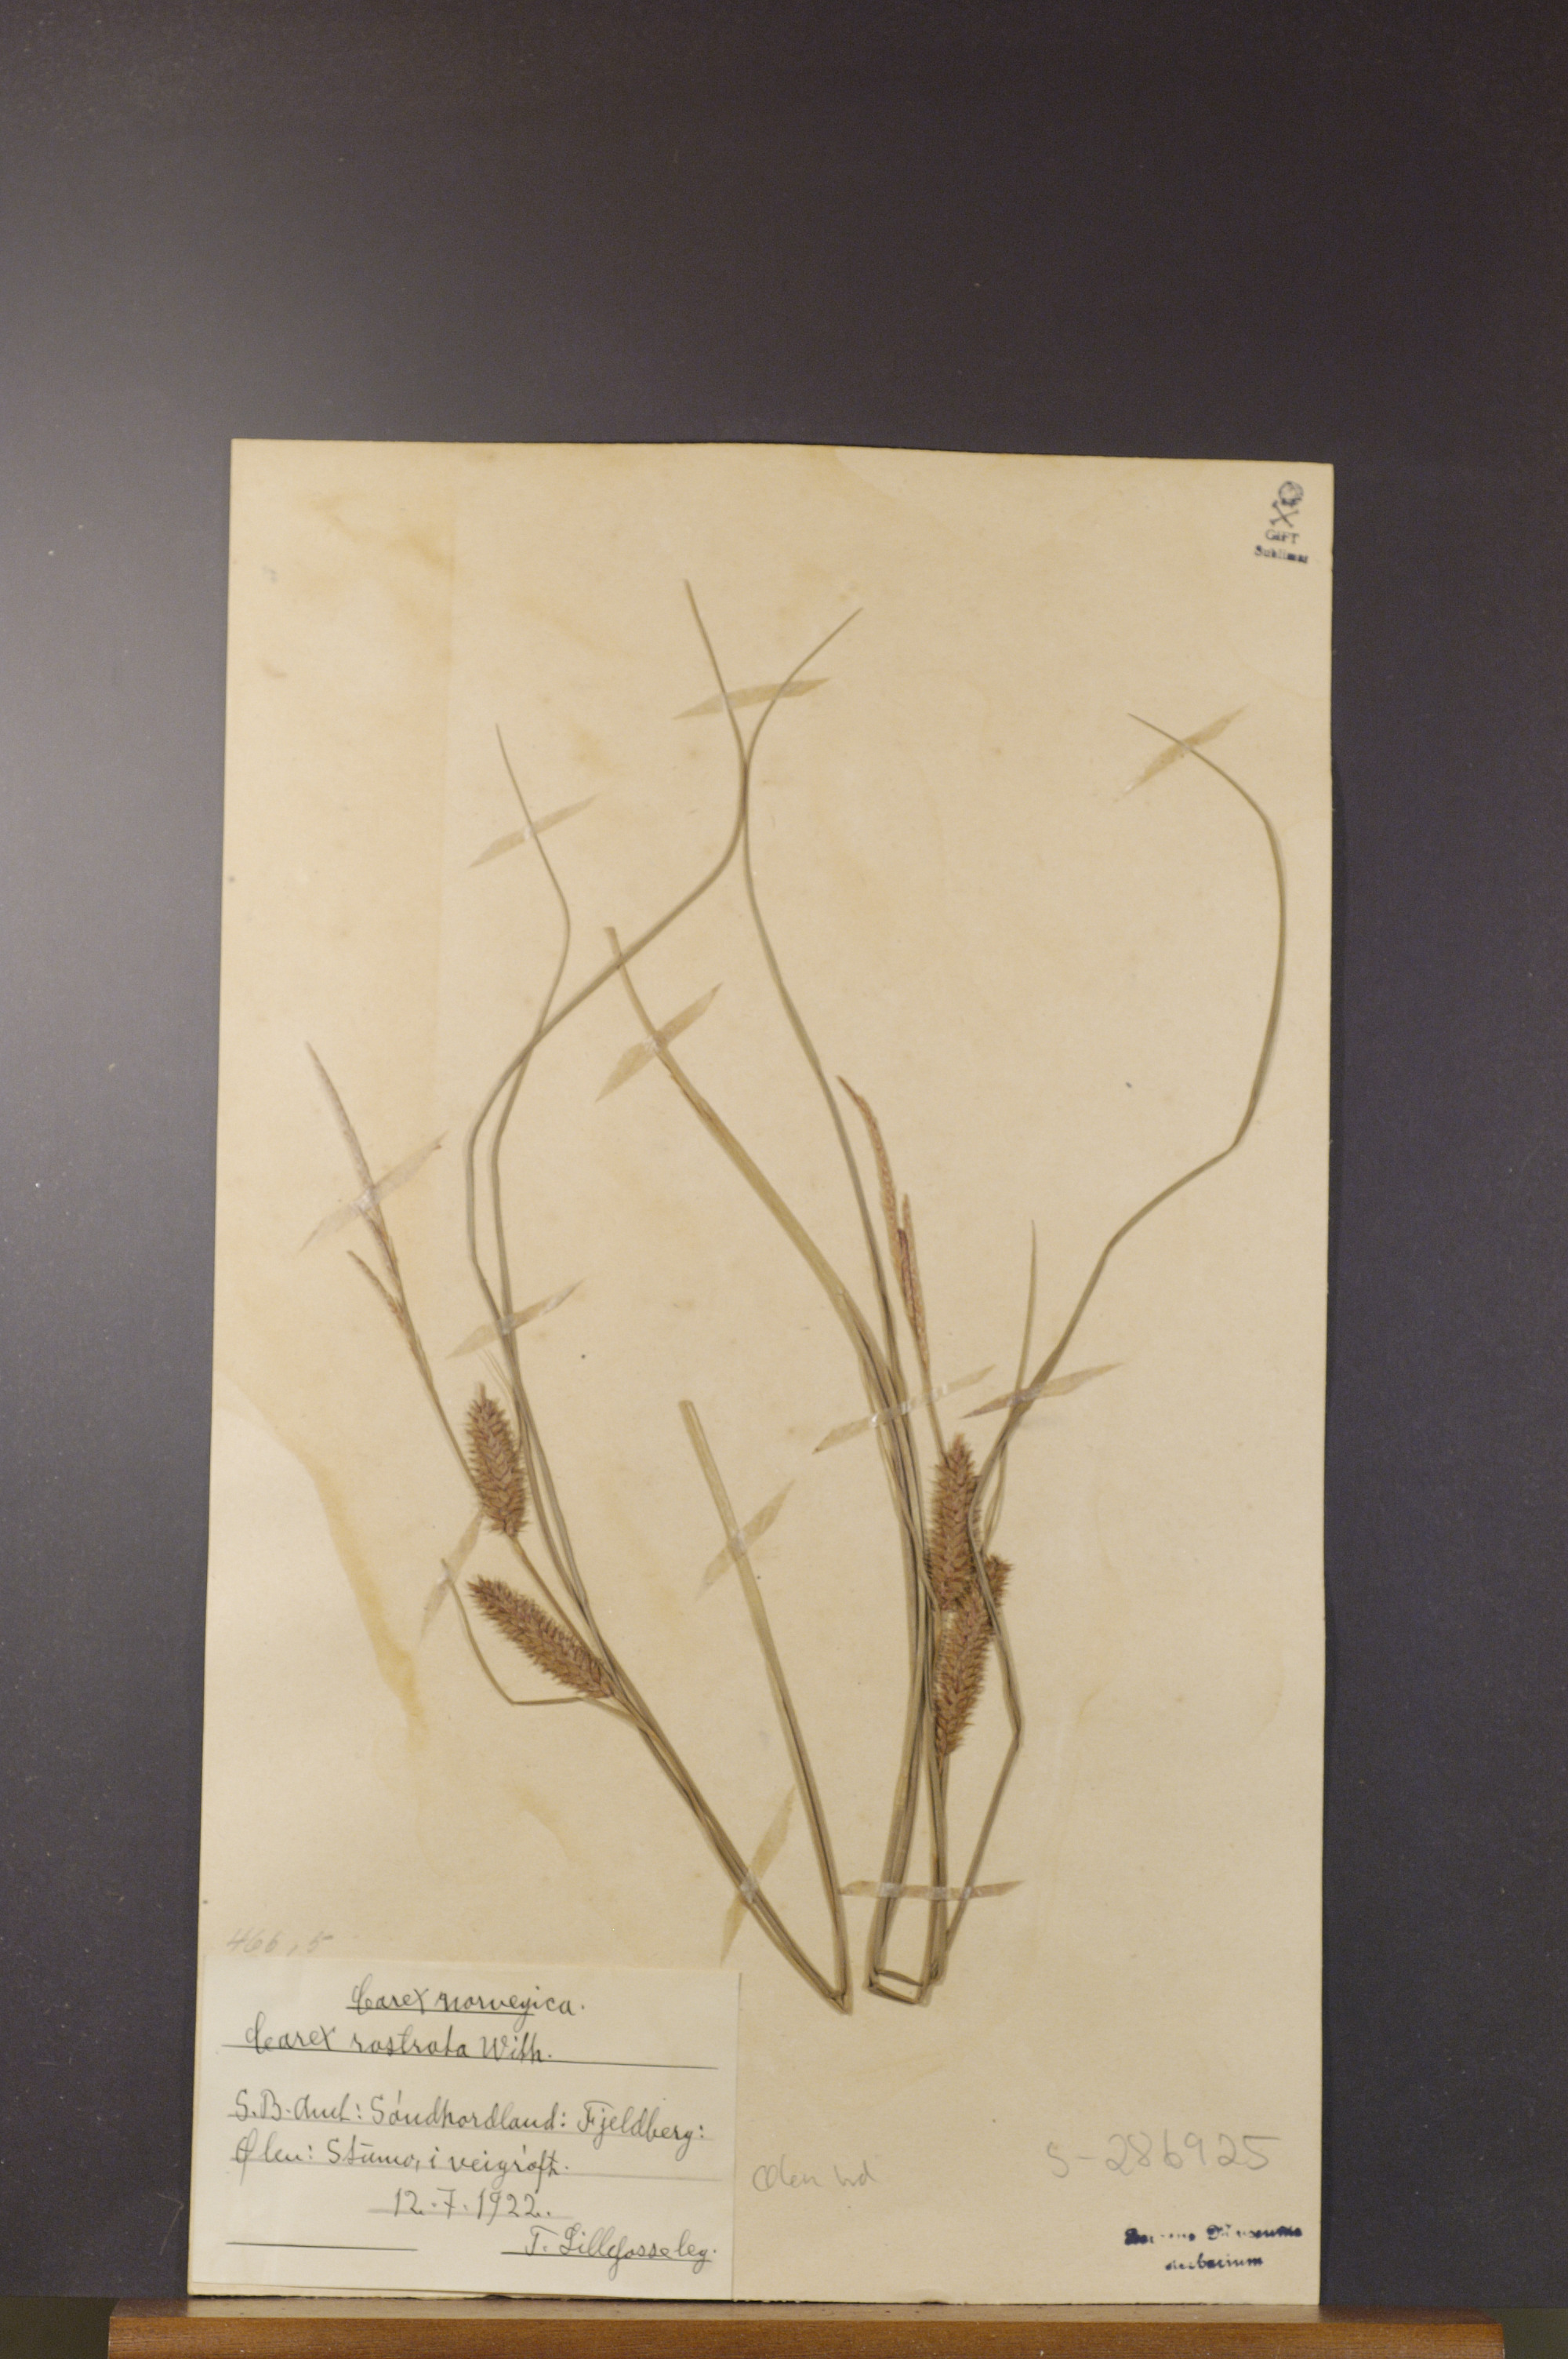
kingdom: Plantae
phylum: Tracheophyta
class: Liliopsida
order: Poales
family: Cyperaceae
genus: Carex
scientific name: Carex rostrata
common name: Bottle sedge
